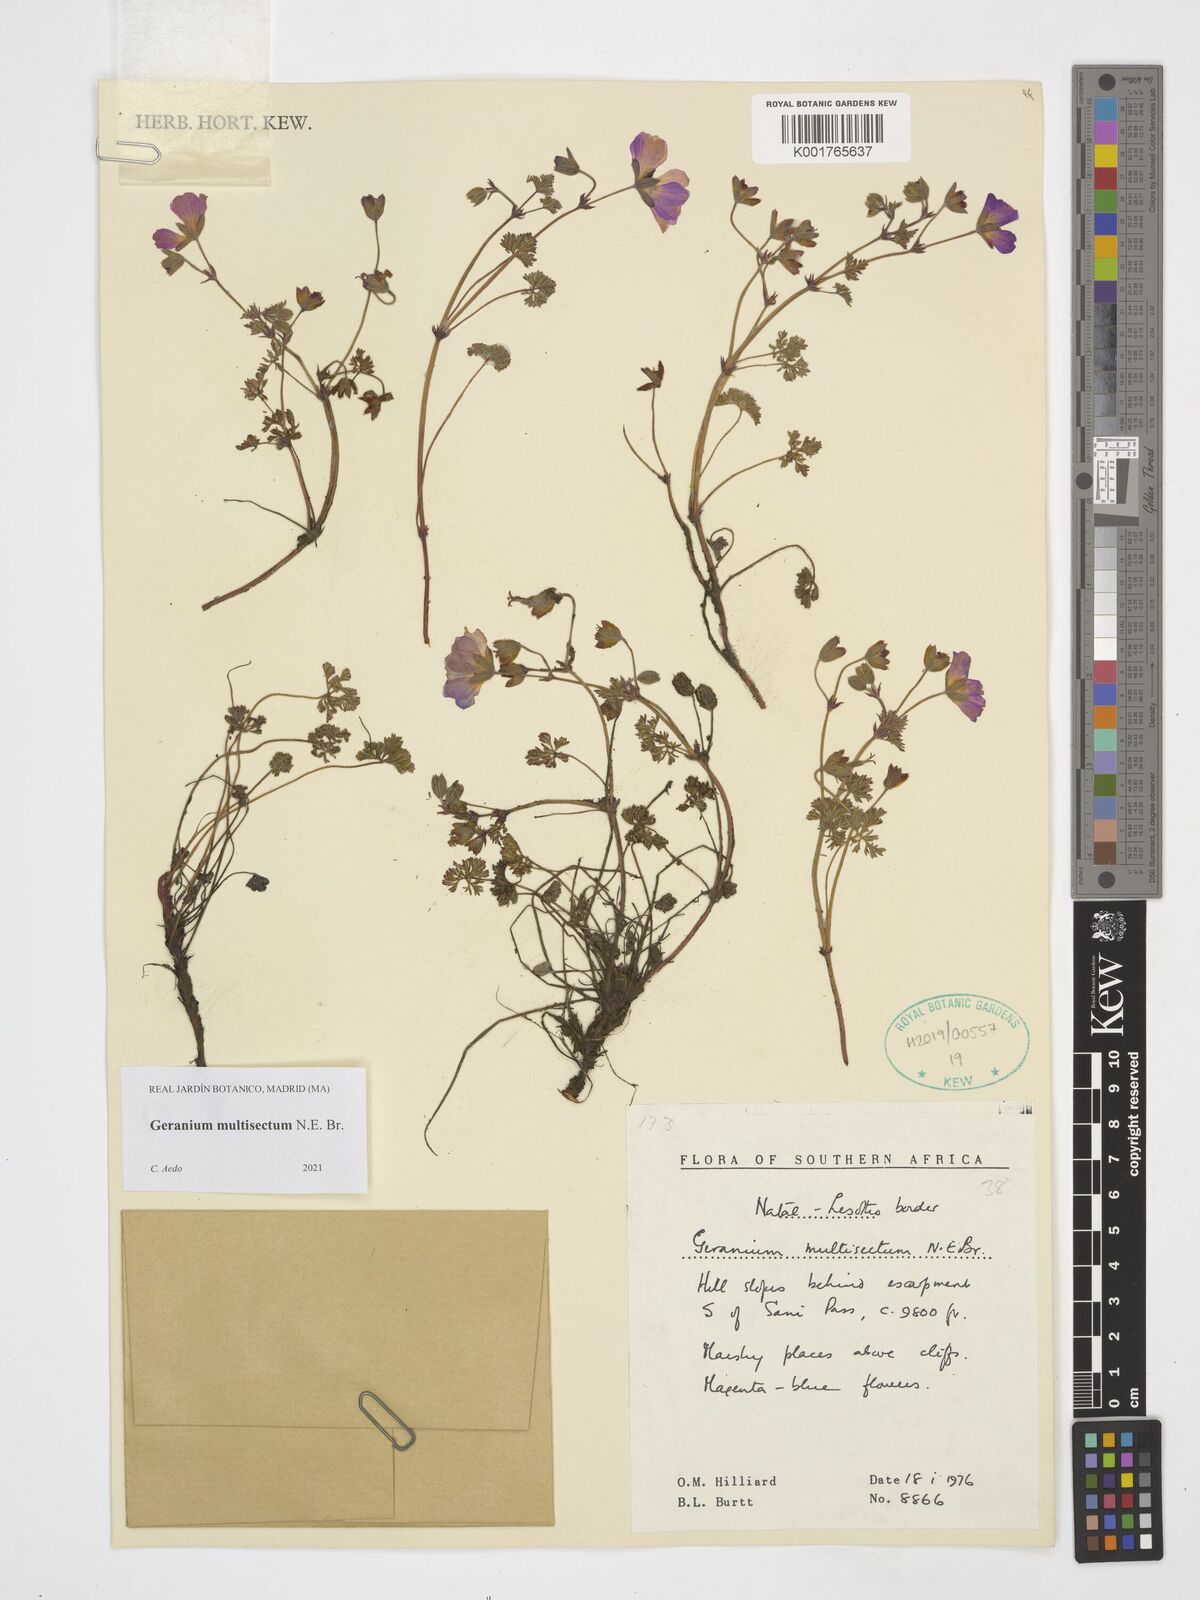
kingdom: Plantae
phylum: Tracheophyta
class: Magnoliopsida
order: Geraniales
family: Geraniaceae
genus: Geranium
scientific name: Geranium multisectum
